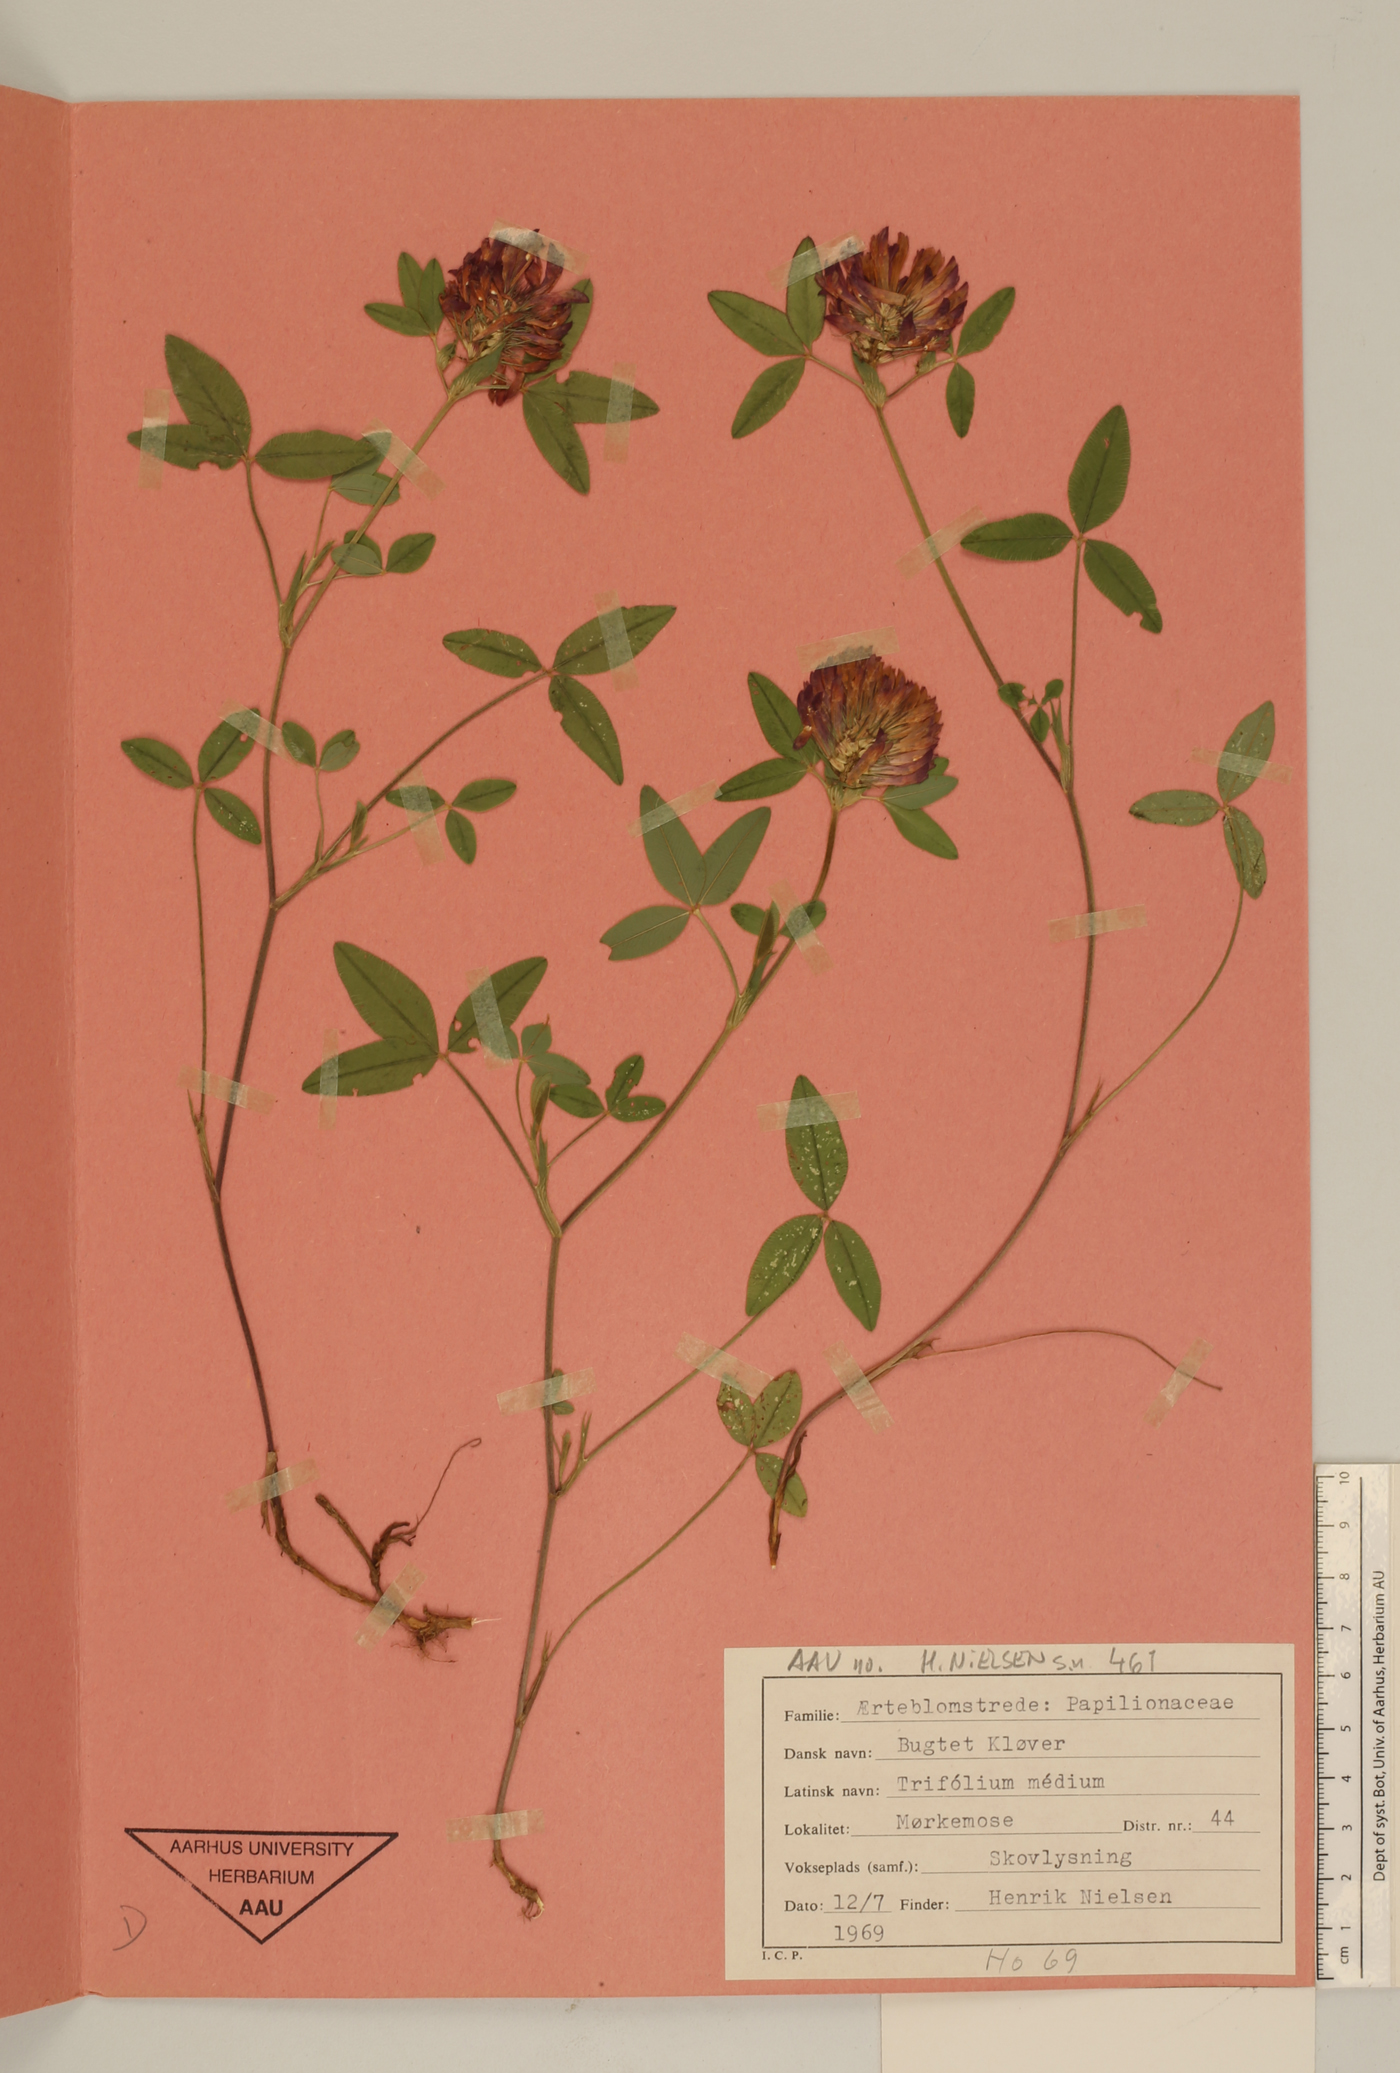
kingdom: Plantae
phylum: Tracheophyta
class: Magnoliopsida
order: Fabales
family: Fabaceae
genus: Trifolium
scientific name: Trifolium medium
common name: Zigzag clover
